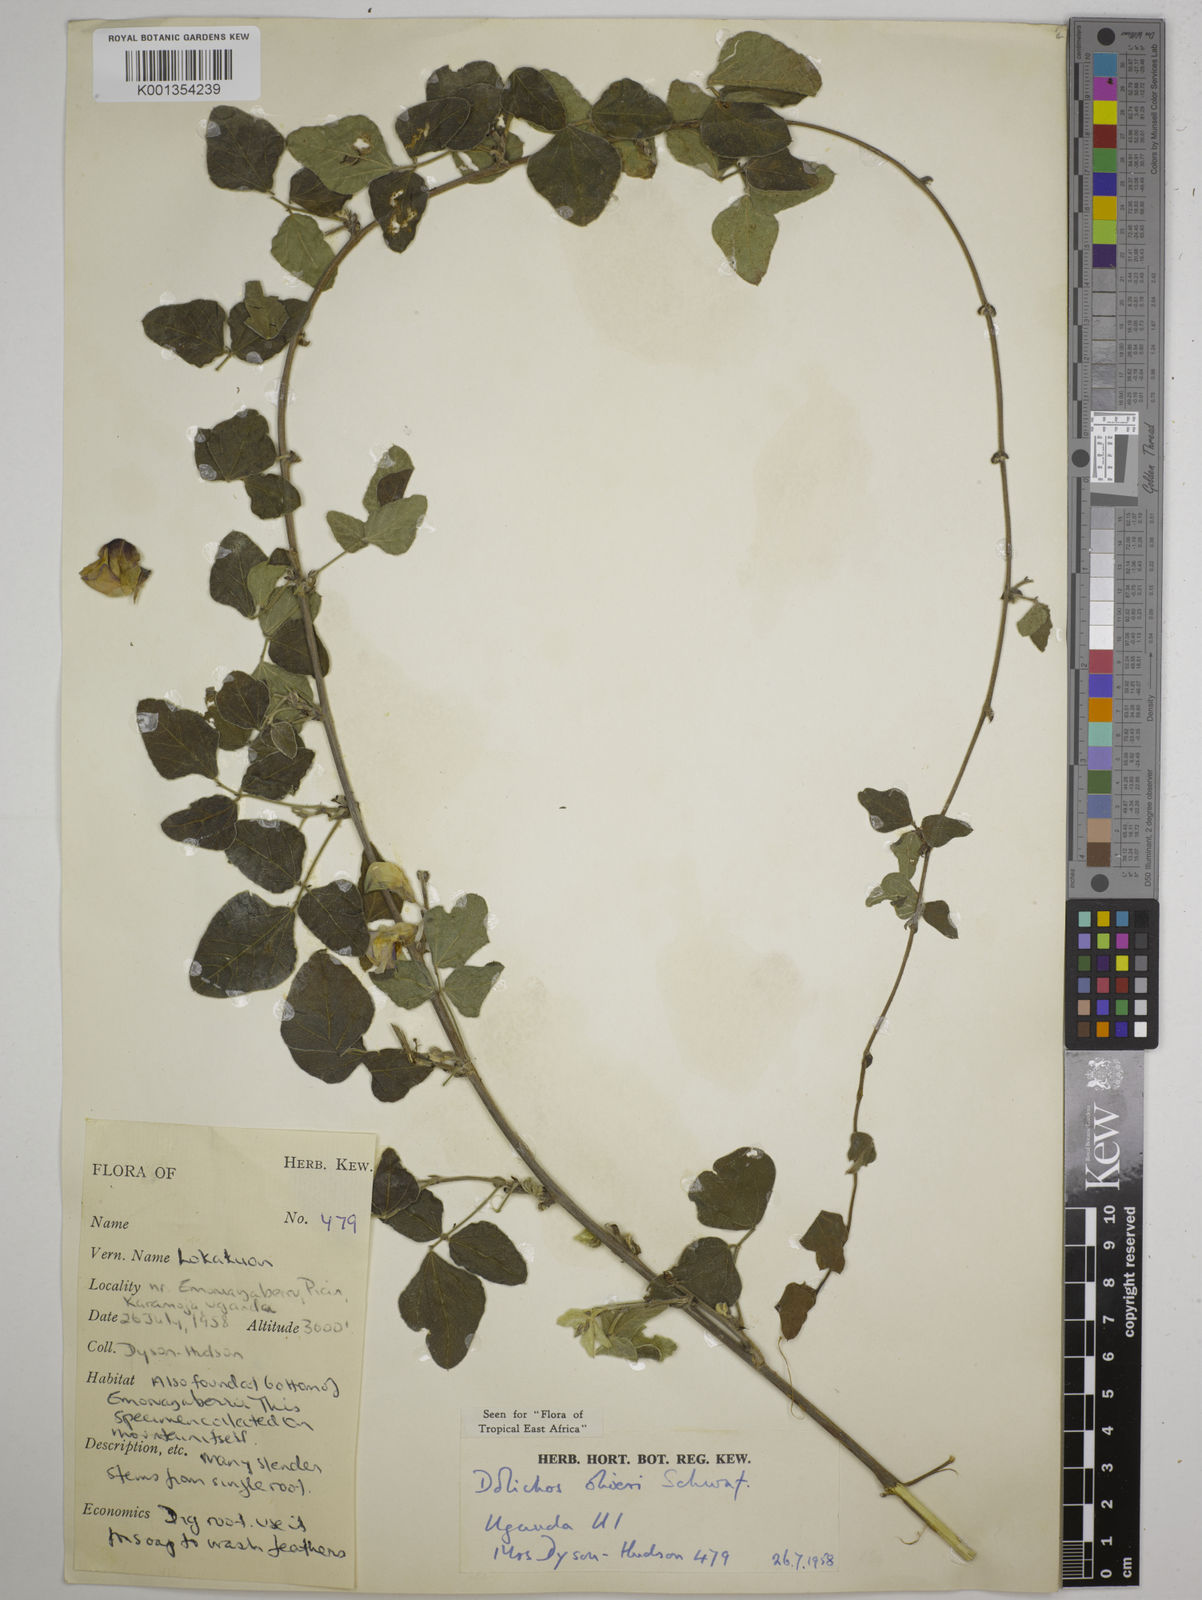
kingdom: Plantae
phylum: Tracheophyta
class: Magnoliopsida
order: Fabales
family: Fabaceae
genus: Dolichos
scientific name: Dolichos oliveri
